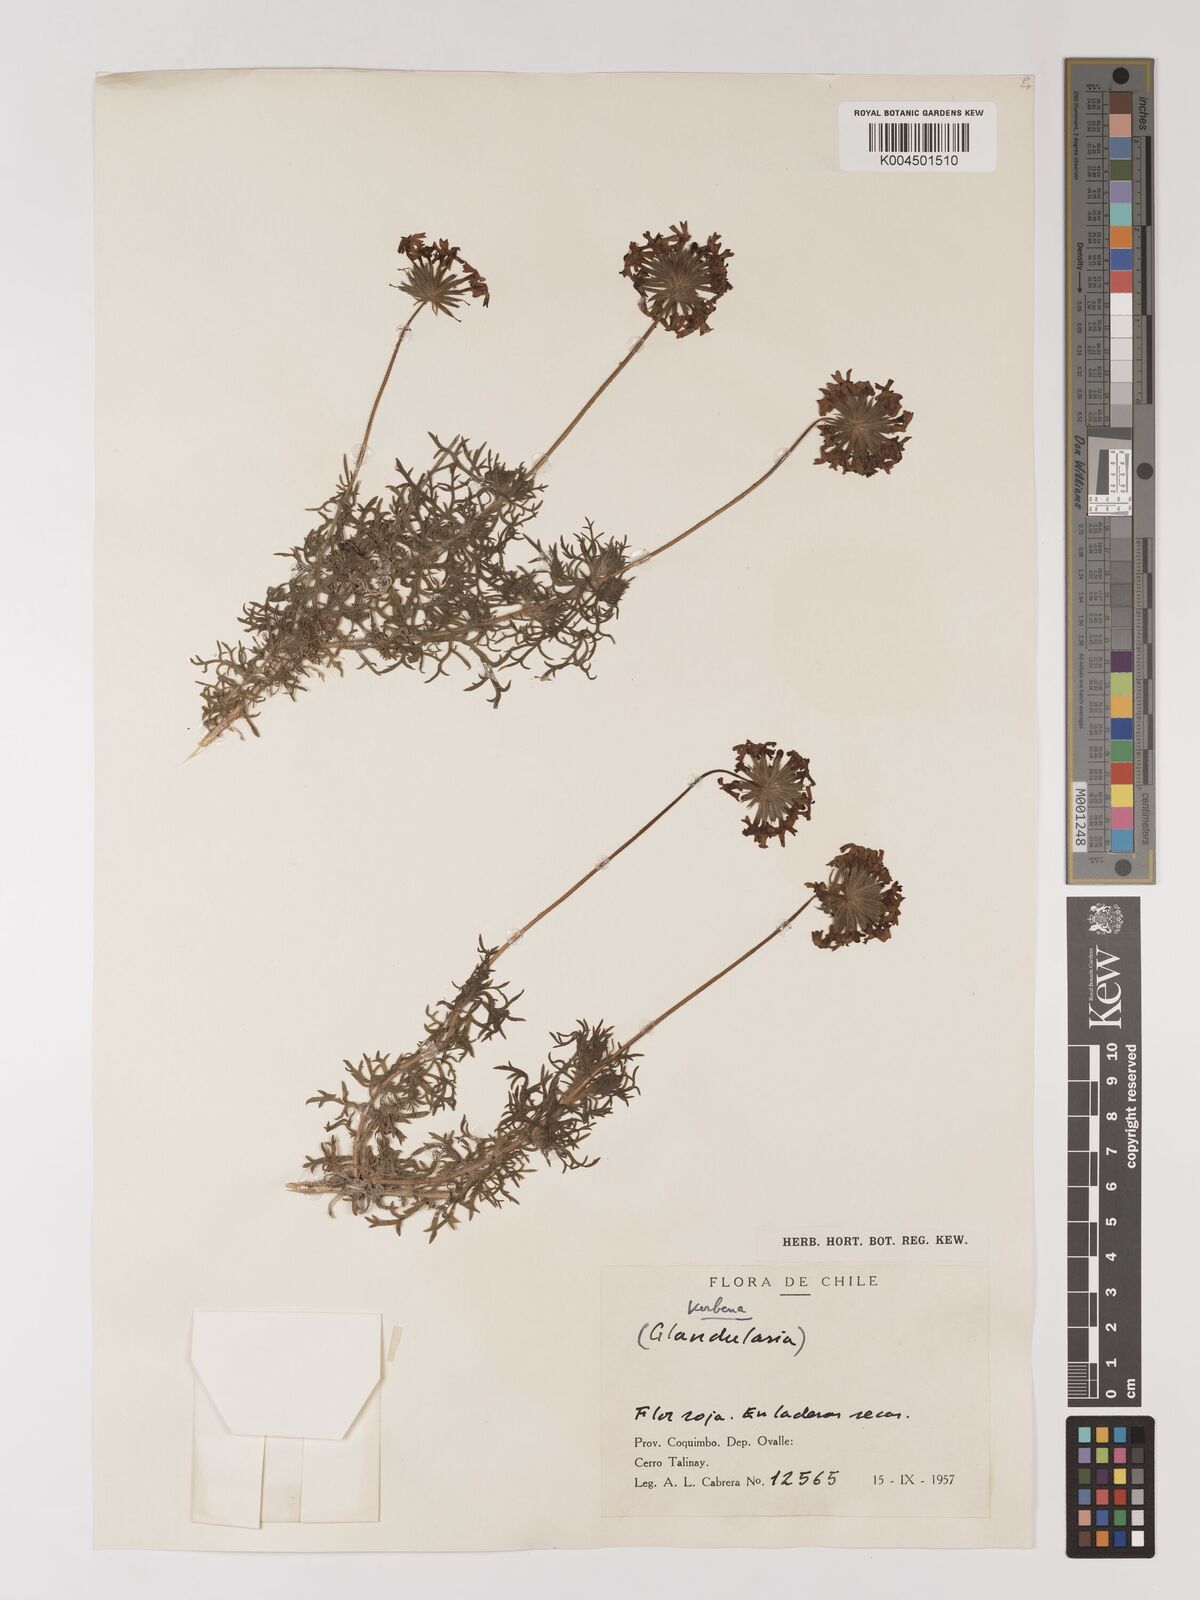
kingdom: Plantae
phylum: Tracheophyta
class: Magnoliopsida
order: Lamiales
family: Verbenaceae
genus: Verbena
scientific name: Verbena
